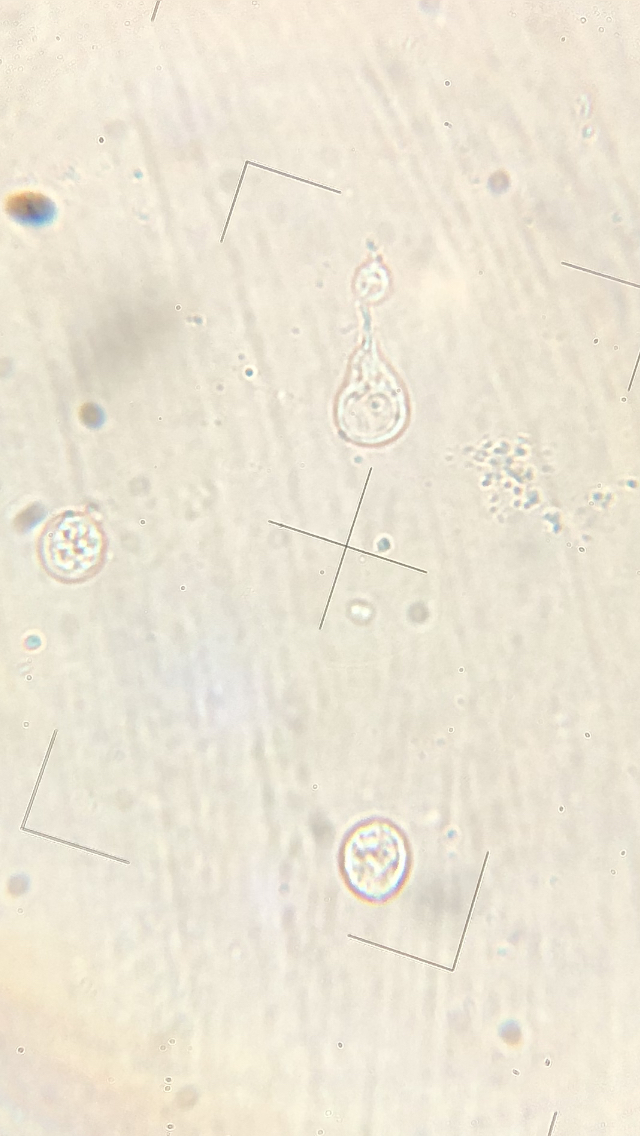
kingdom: Fungi
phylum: Basidiomycota
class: Agaricomycetes
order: Cantharellales
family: Tulasnellaceae
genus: Tulasnella
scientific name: Tulasnella violea
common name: violet ballonhinde
